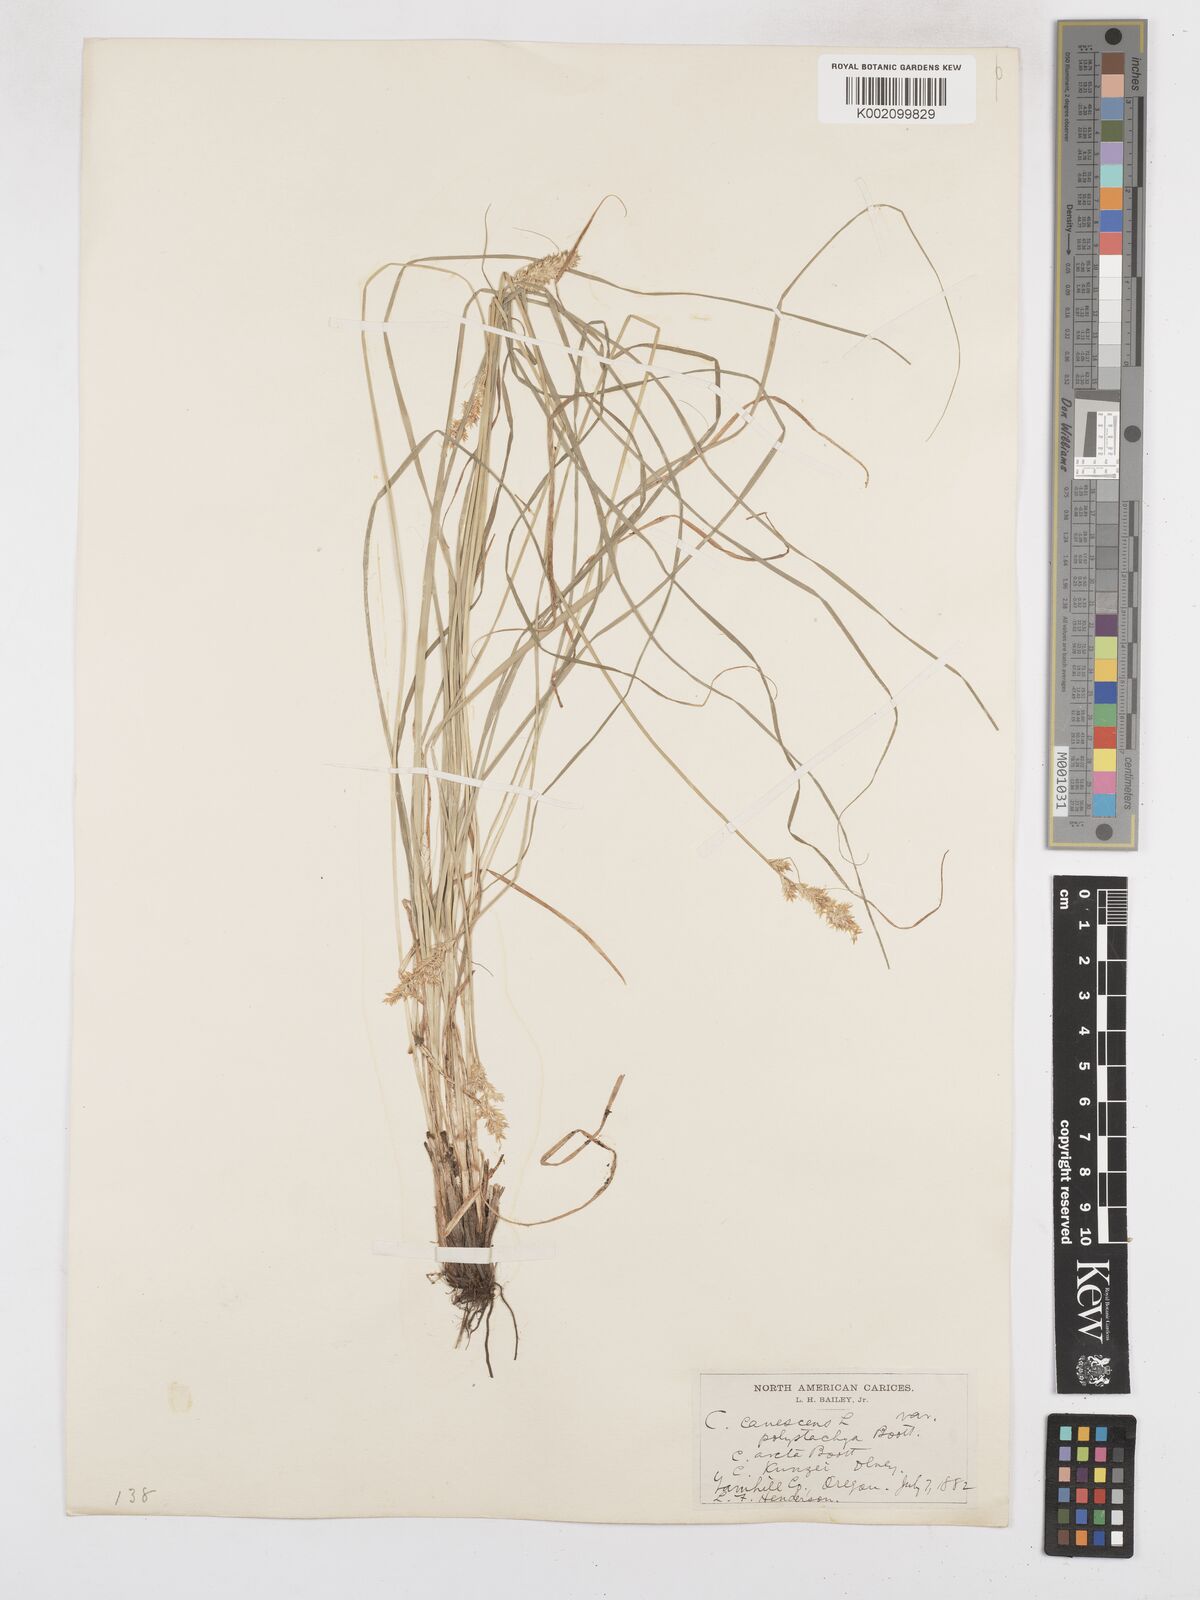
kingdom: Plantae
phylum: Tracheophyta
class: Liliopsida
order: Poales
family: Cyperaceae
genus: Carex
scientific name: Carex curta
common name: White sedge
